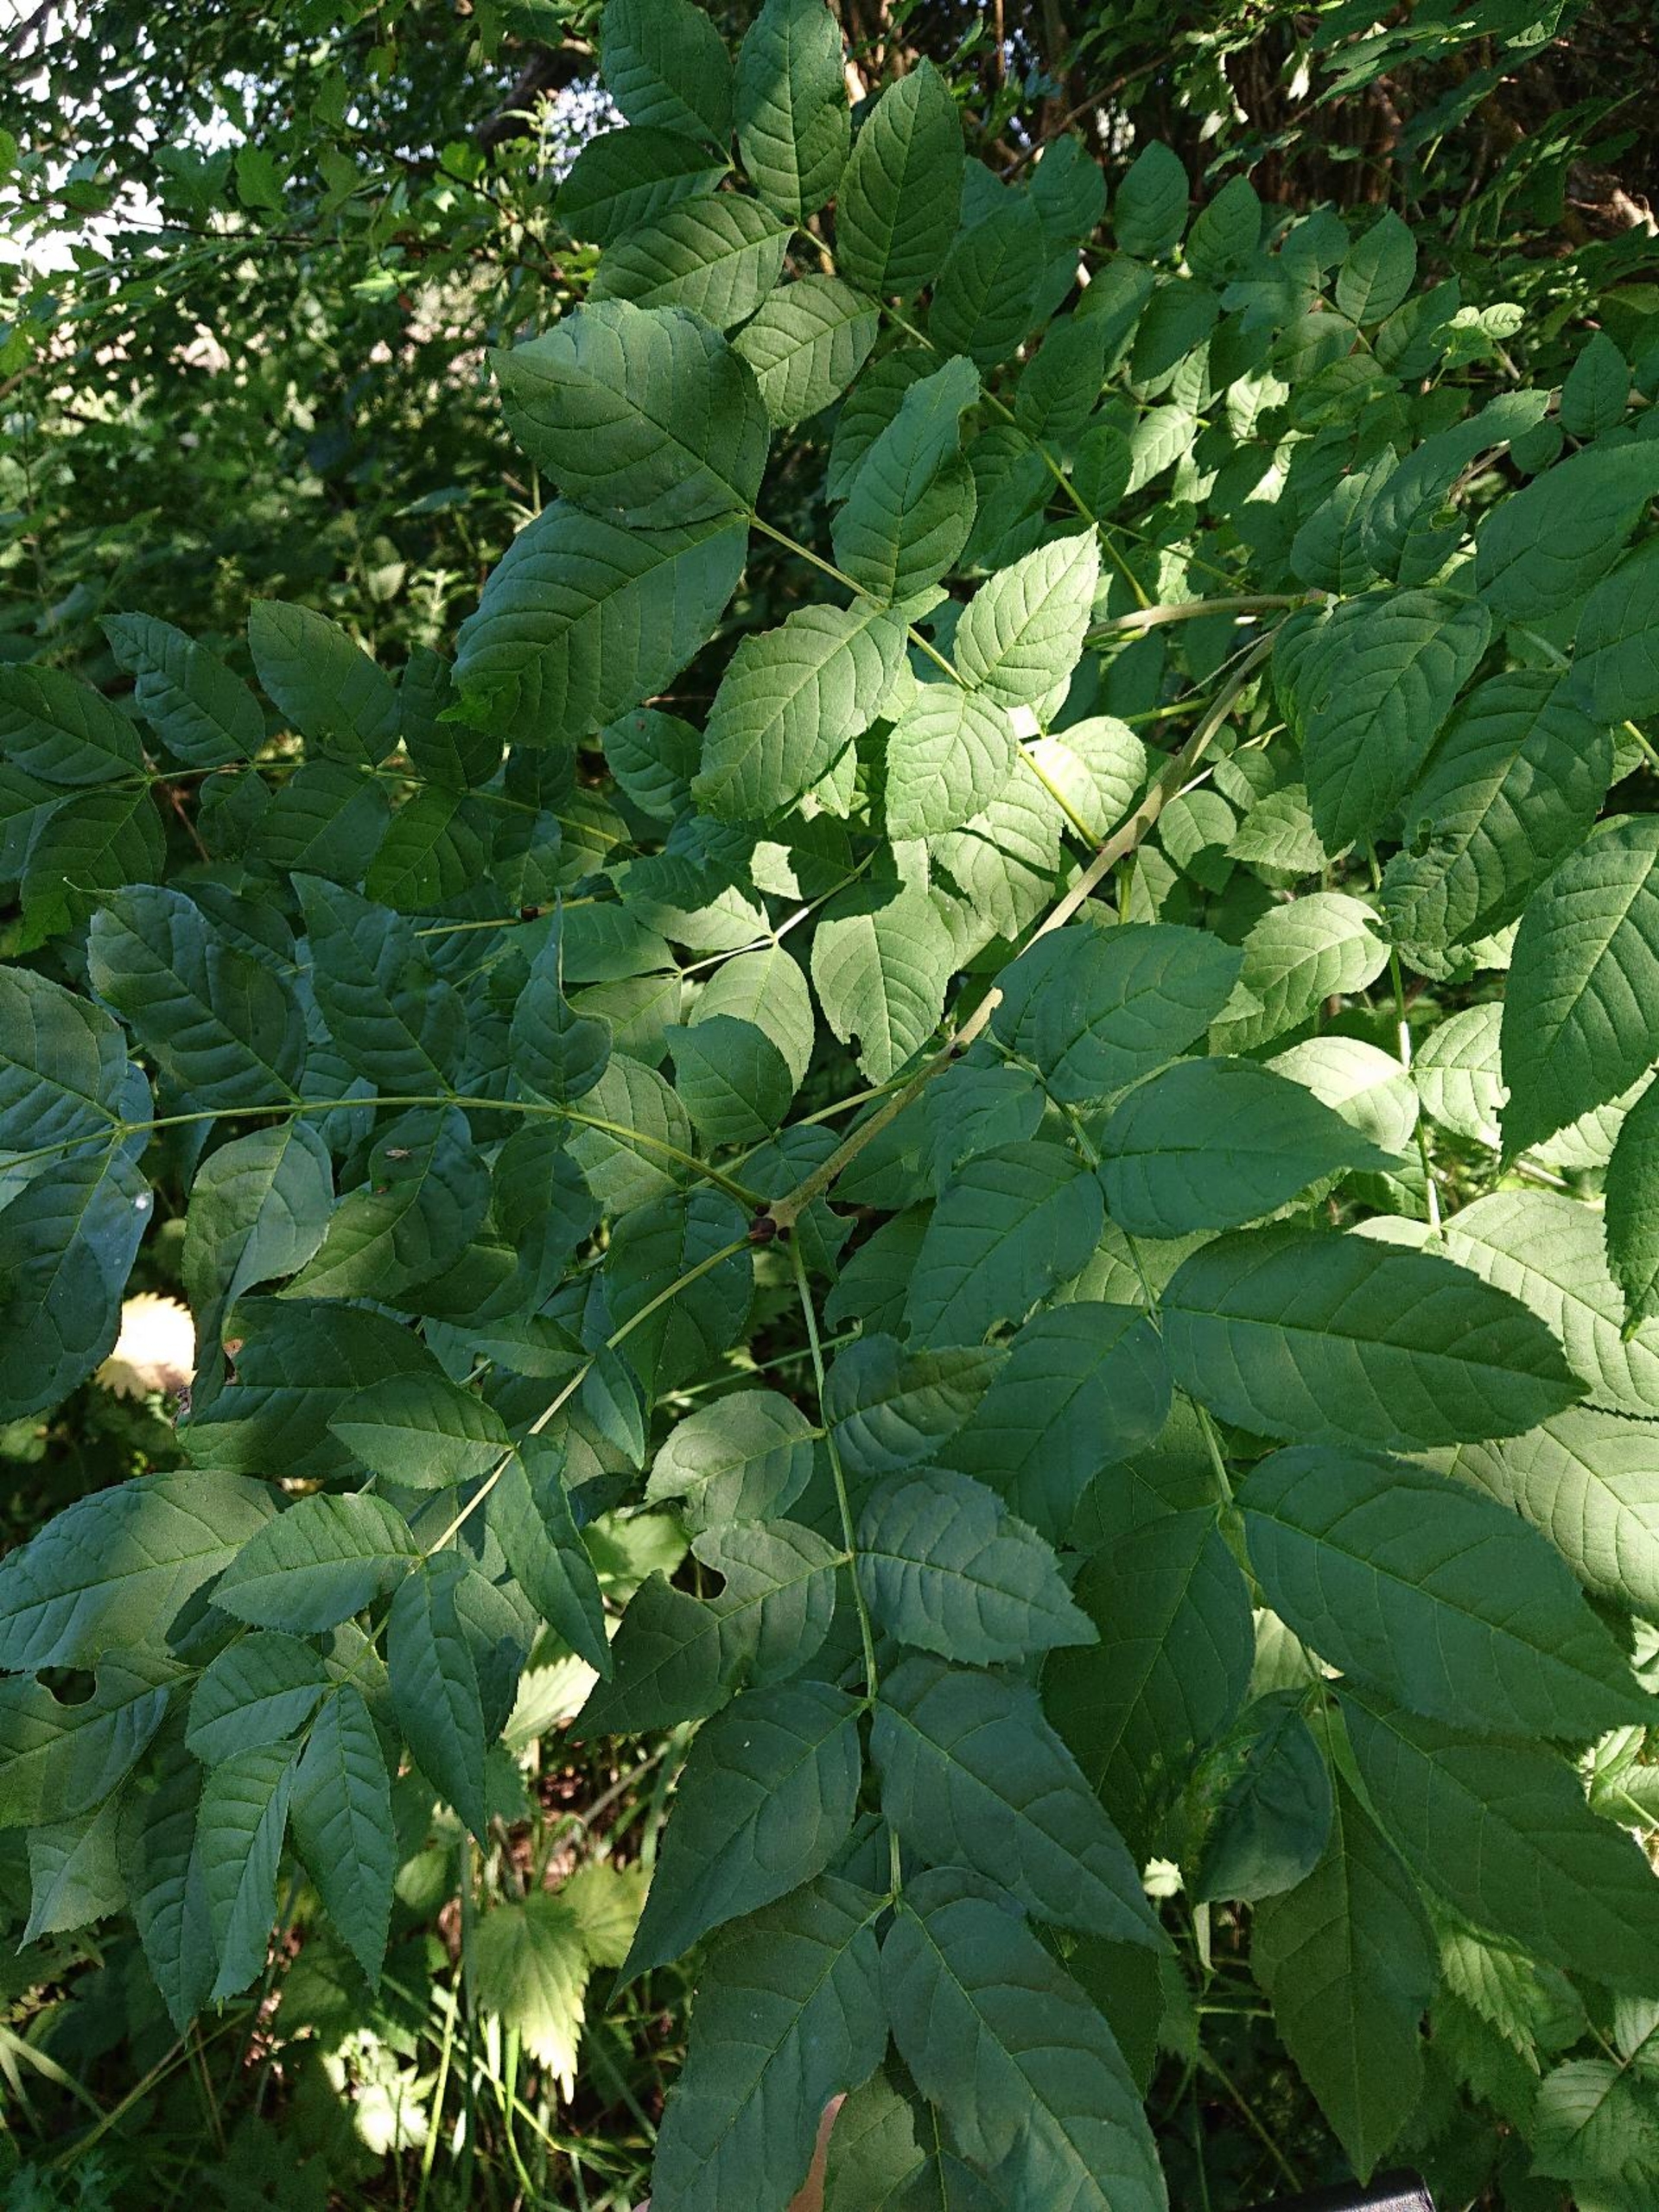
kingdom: Plantae
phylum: Tracheophyta
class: Magnoliopsida
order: Lamiales
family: Oleaceae
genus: Fraxinus
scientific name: Fraxinus excelsior
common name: Ask
